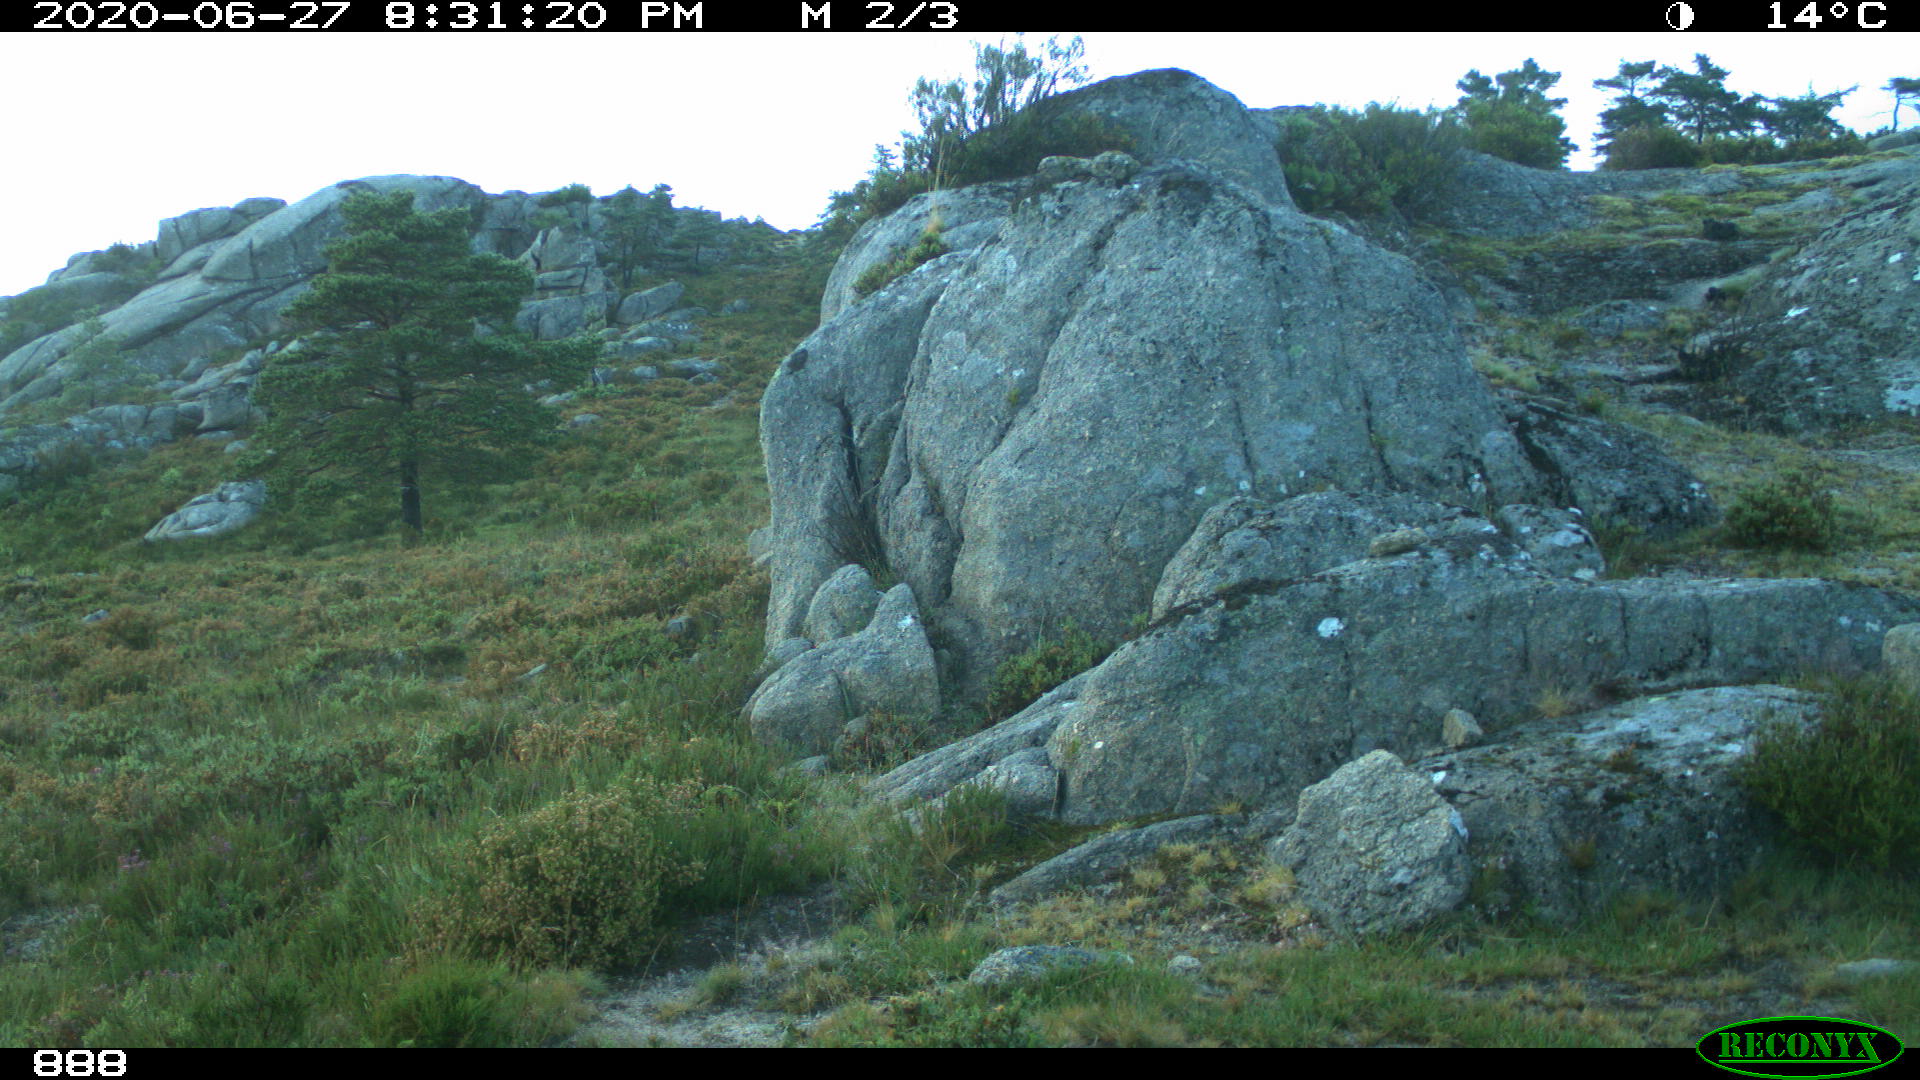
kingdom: Animalia
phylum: Chordata
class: Mammalia
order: Artiodactyla
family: Bovidae
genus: Bos
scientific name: Bos taurus
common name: Domesticated cattle
